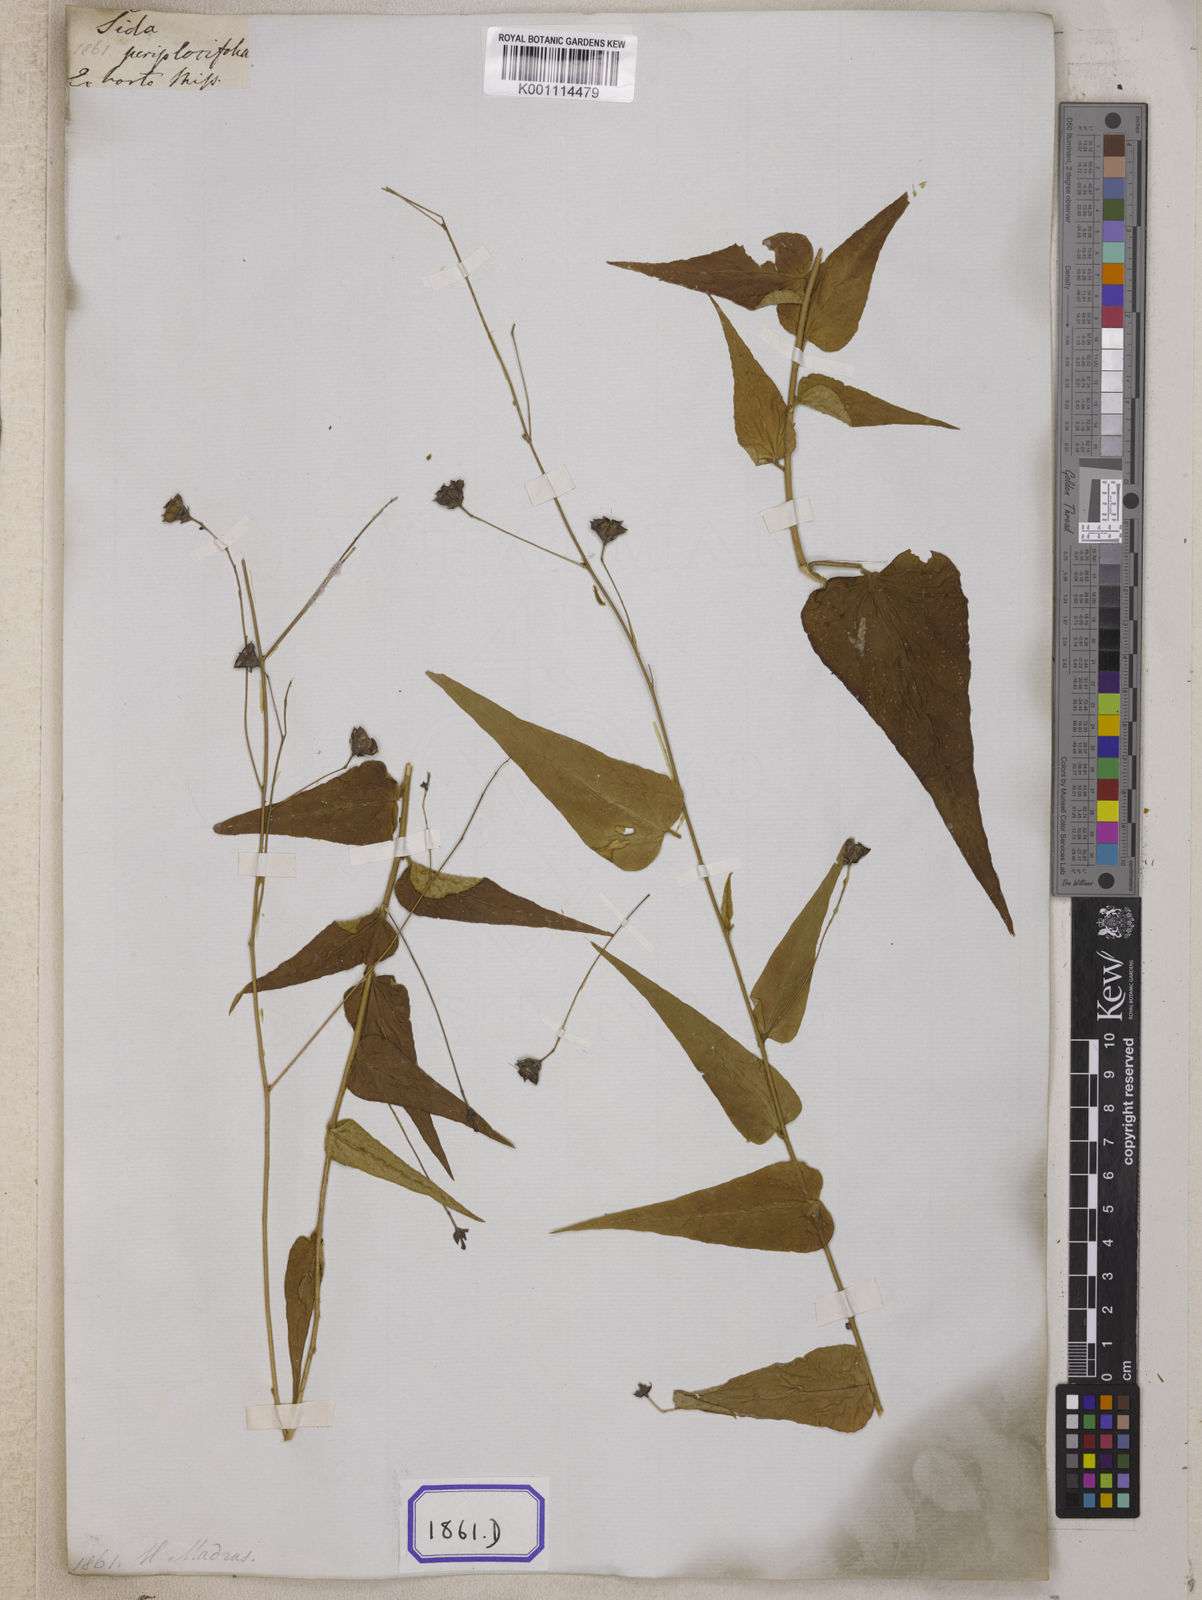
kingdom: Plantae
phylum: Tracheophyta
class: Magnoliopsida
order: Malvales
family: Malvaceae
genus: Wissadula
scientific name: Wissadula periplocifolia
